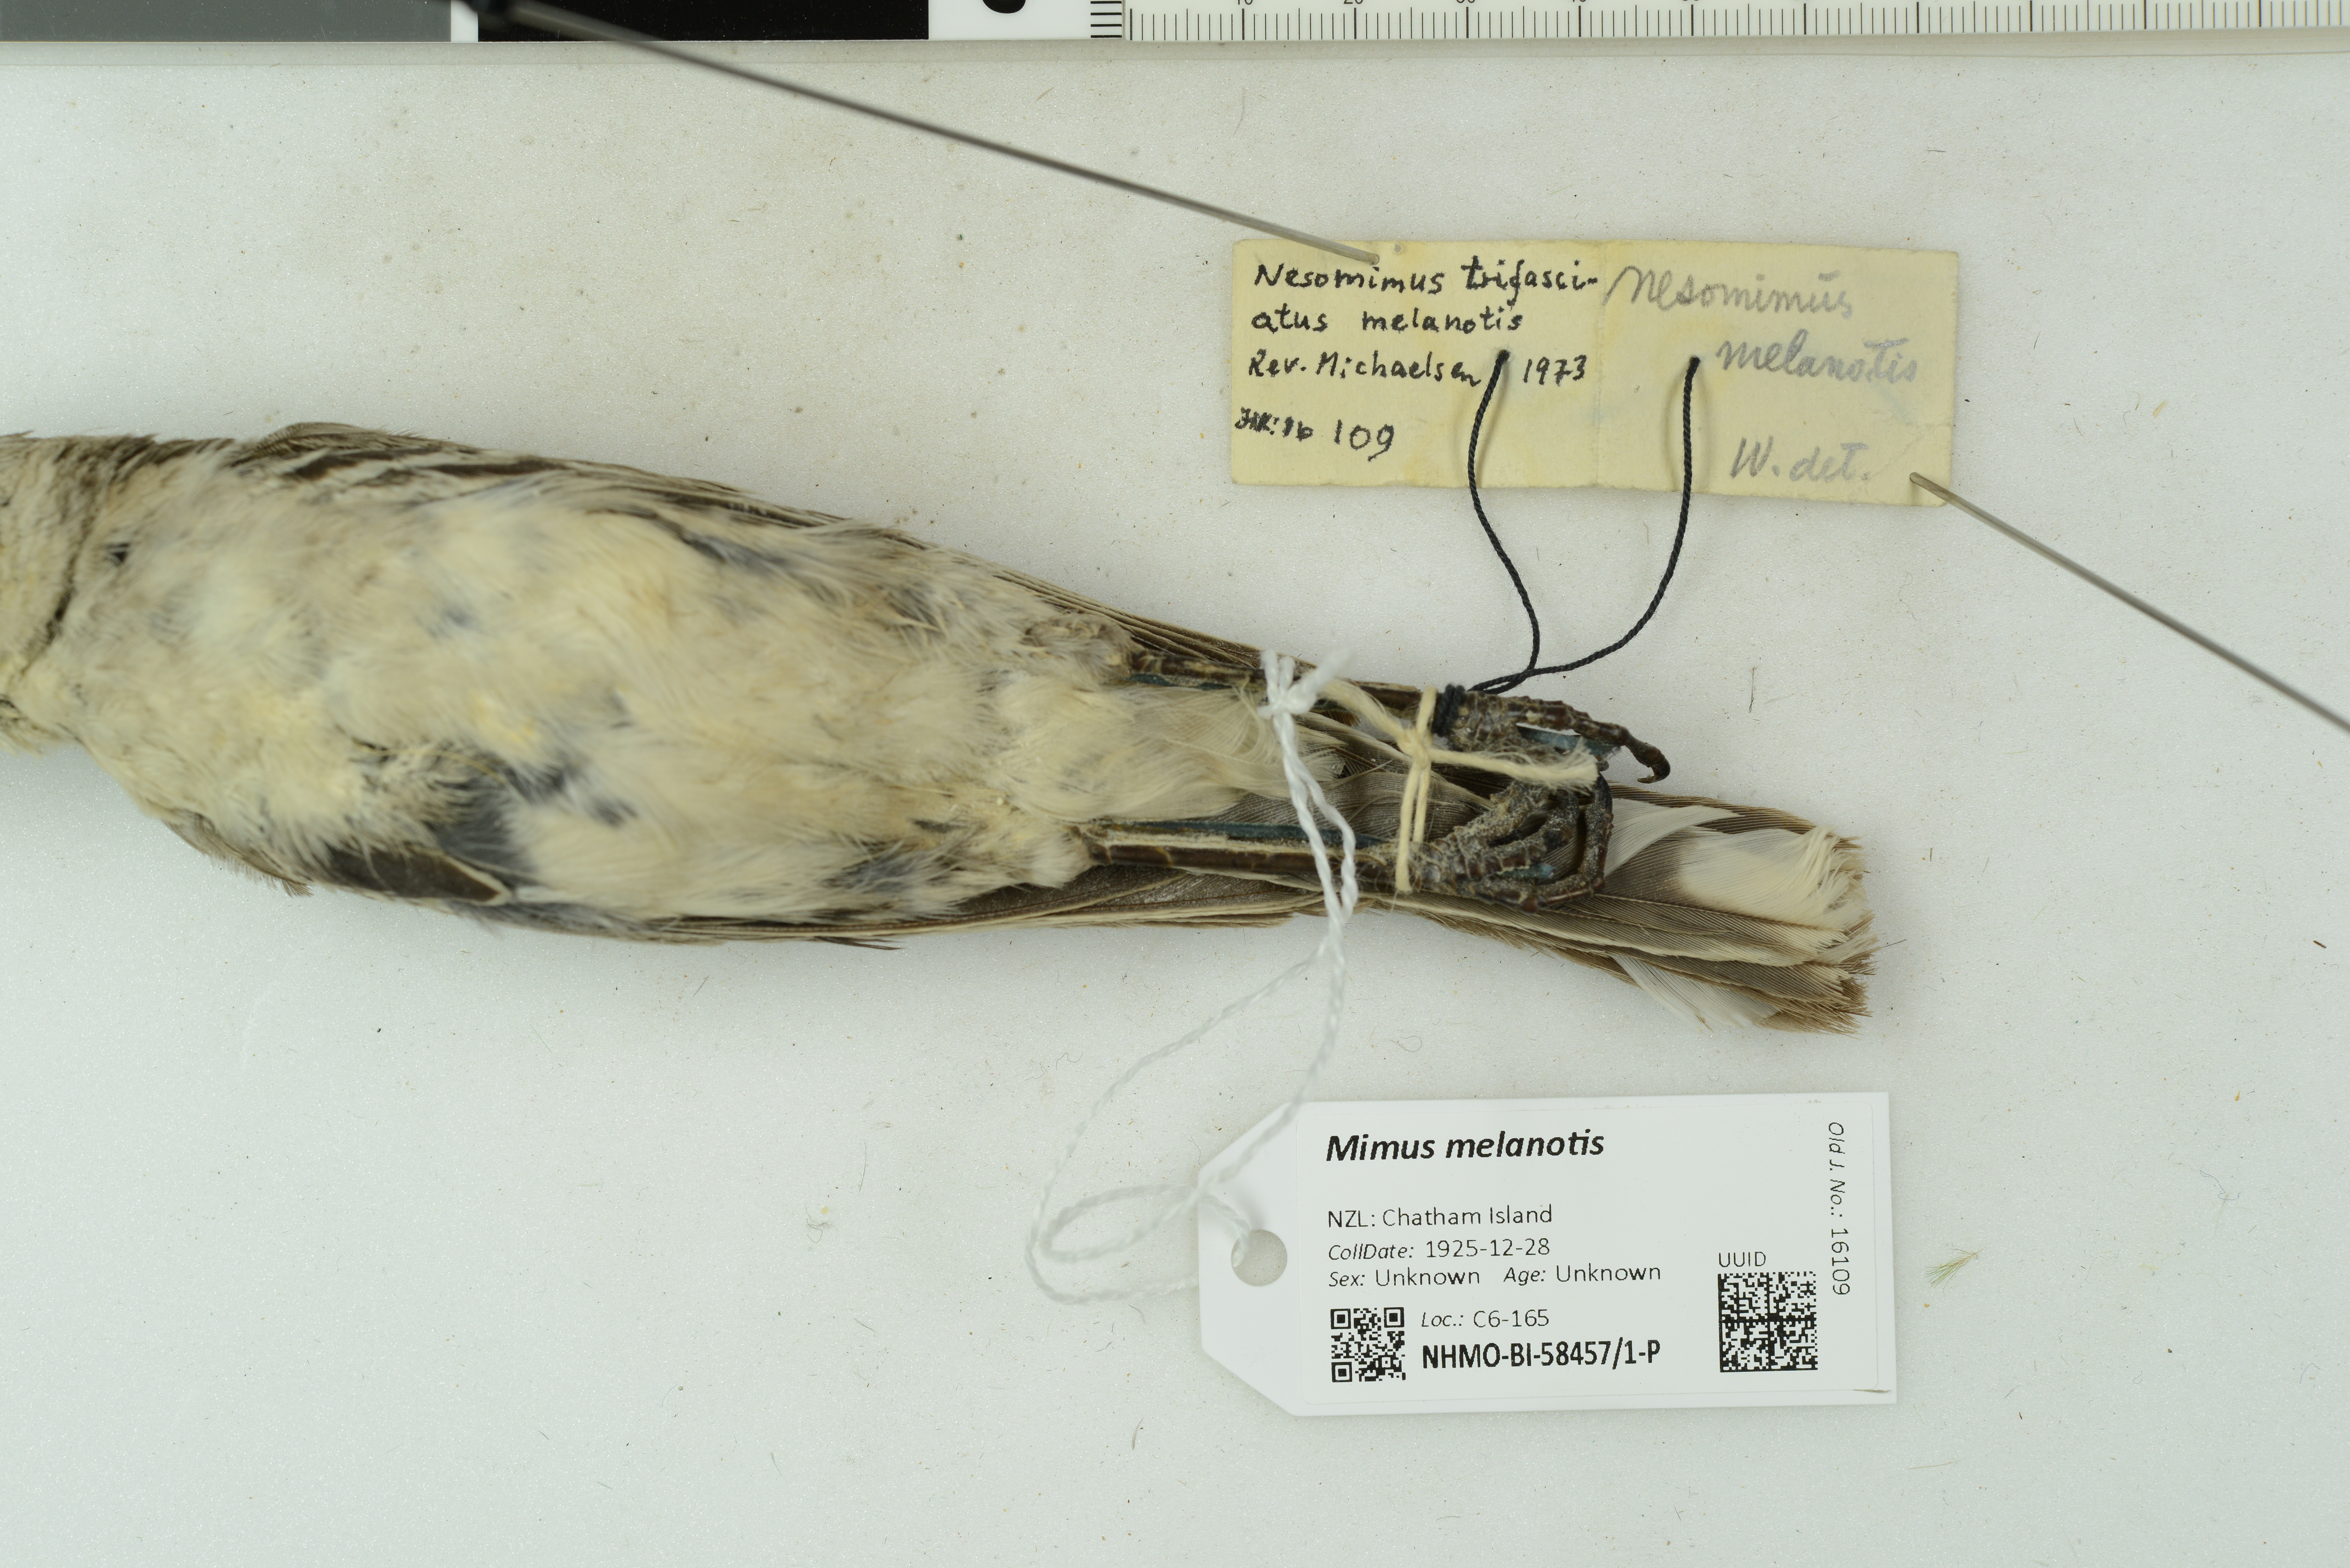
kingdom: Animalia
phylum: Chordata
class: Aves
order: Passeriformes
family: Mimidae
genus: Mimus
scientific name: Mimus melanotis
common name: San cristobal mockingbird
